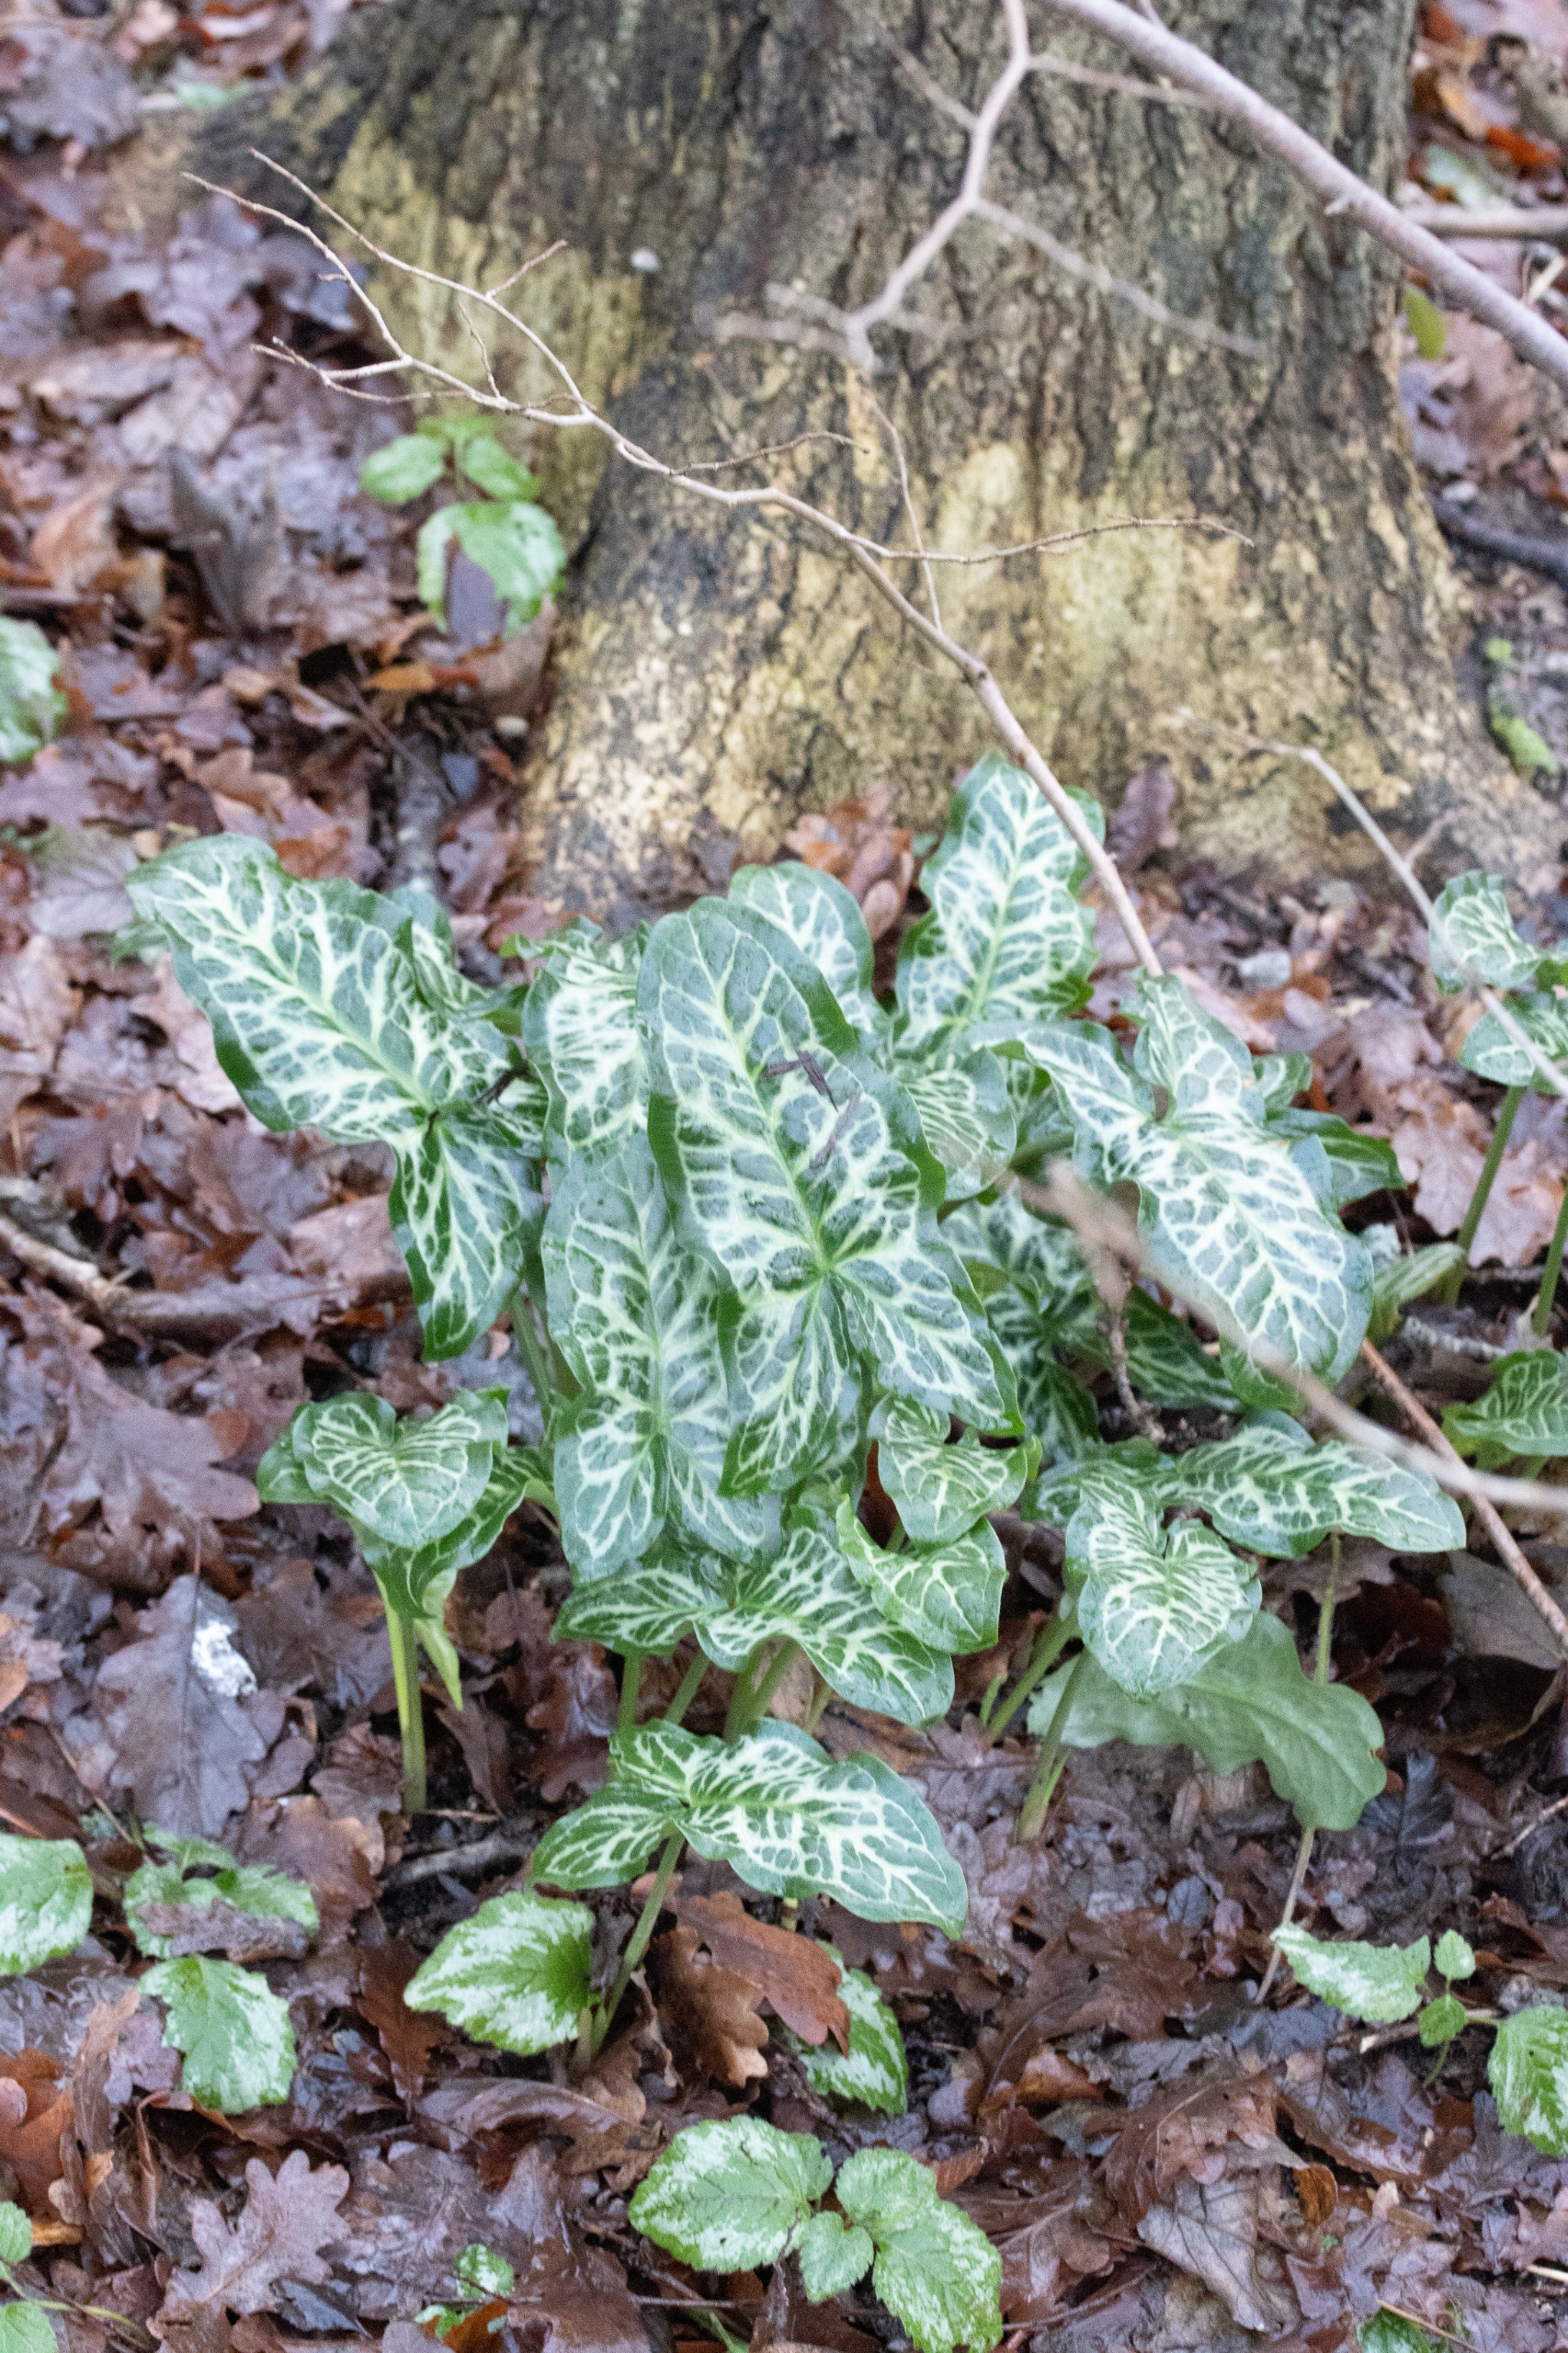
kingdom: Plantae
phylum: Tracheophyta
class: Liliopsida
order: Alismatales
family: Araceae
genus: Arum
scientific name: Arum italicum
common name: Italiensk arum
